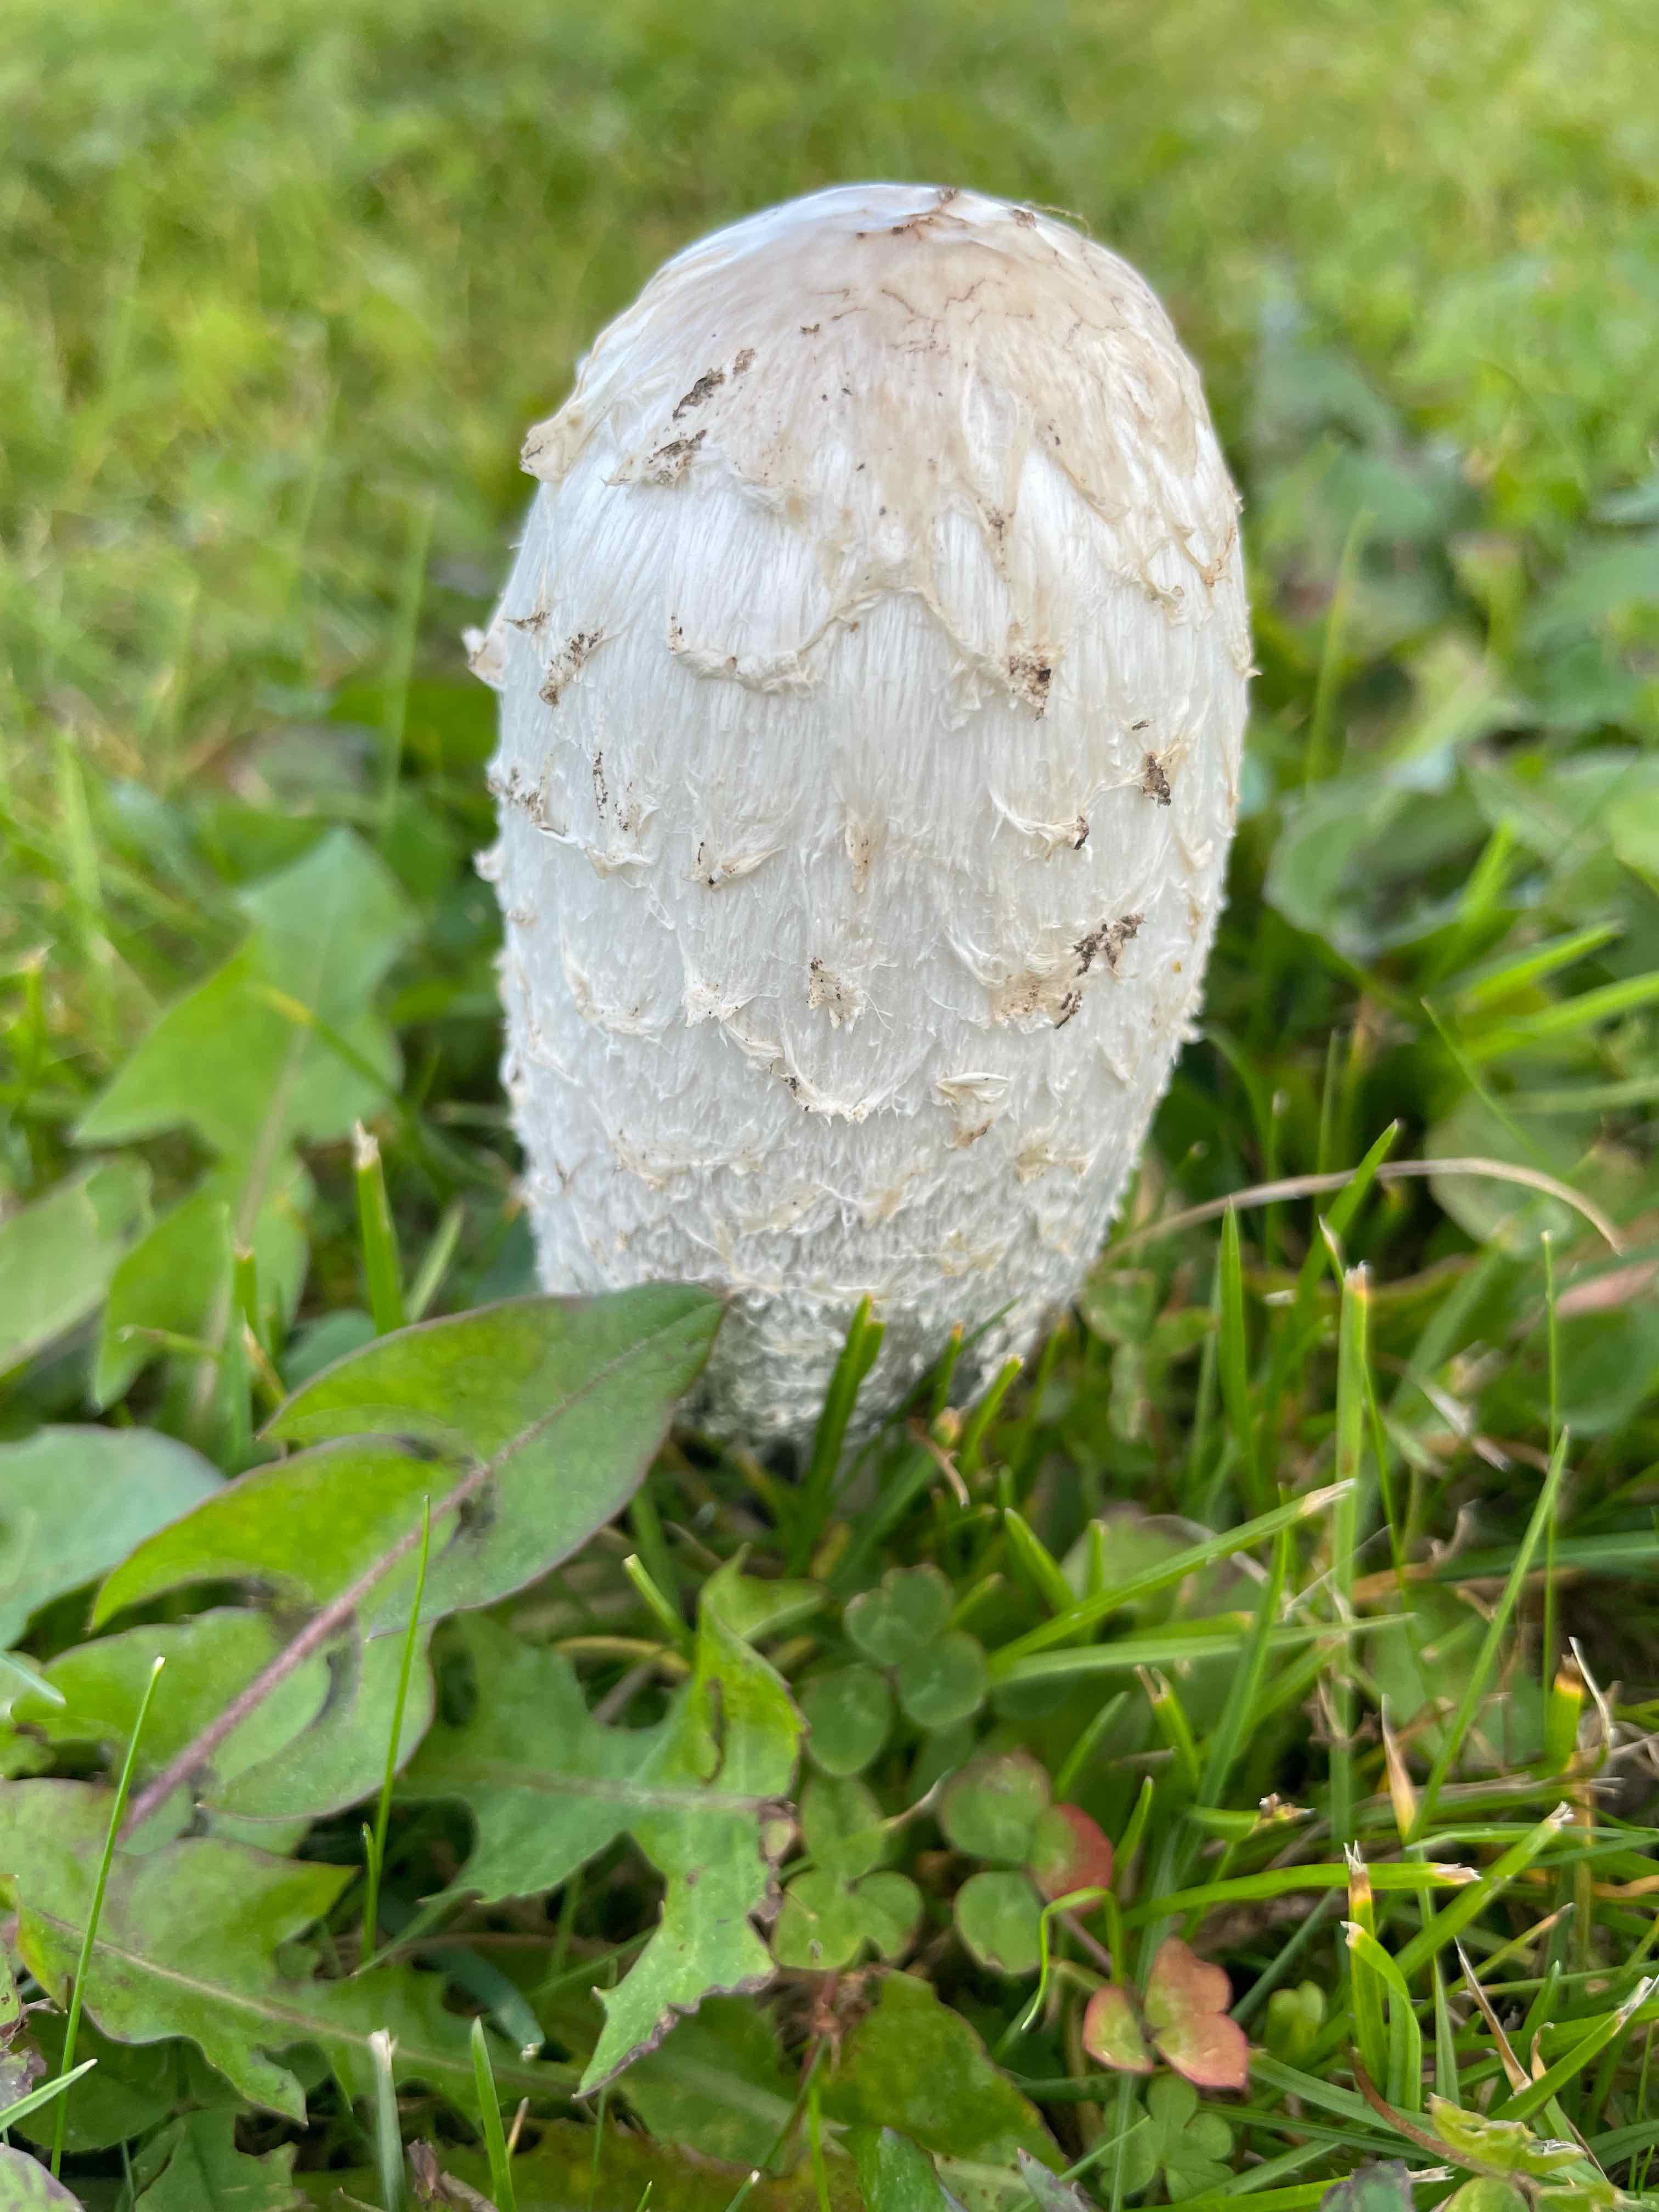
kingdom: Fungi
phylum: Basidiomycota
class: Agaricomycetes
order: Agaricales
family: Agaricaceae
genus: Coprinus
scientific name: Coprinus comatus
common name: stor parykhat
